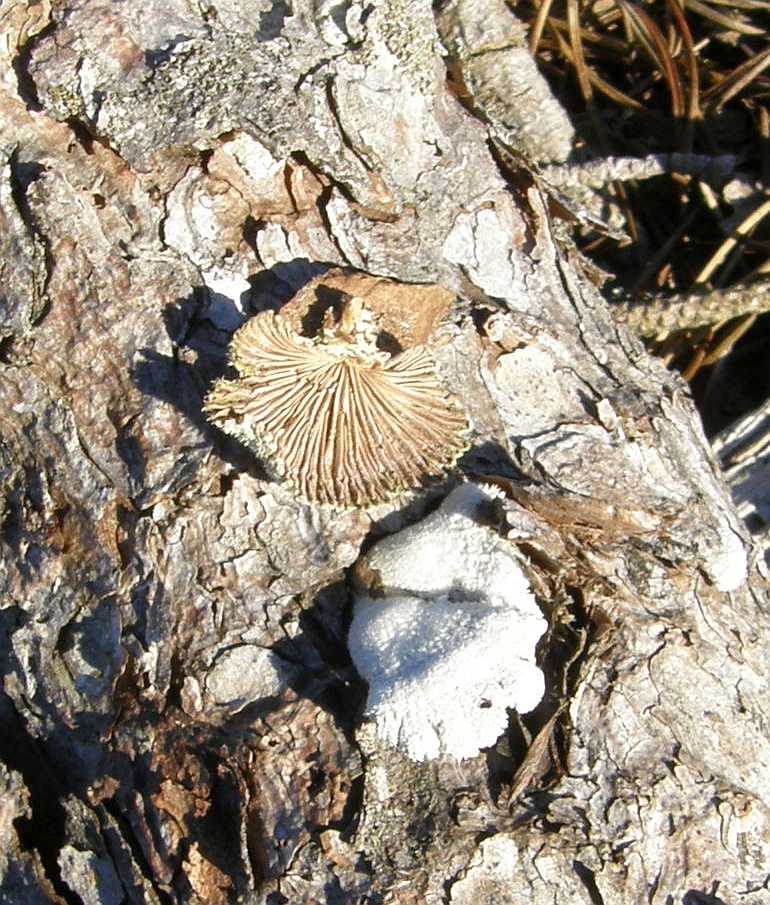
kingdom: Fungi
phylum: Basidiomycota
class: Agaricomycetes
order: Agaricales
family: Schizophyllaceae
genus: Schizophyllum
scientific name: Schizophyllum commune
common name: kløvblad
